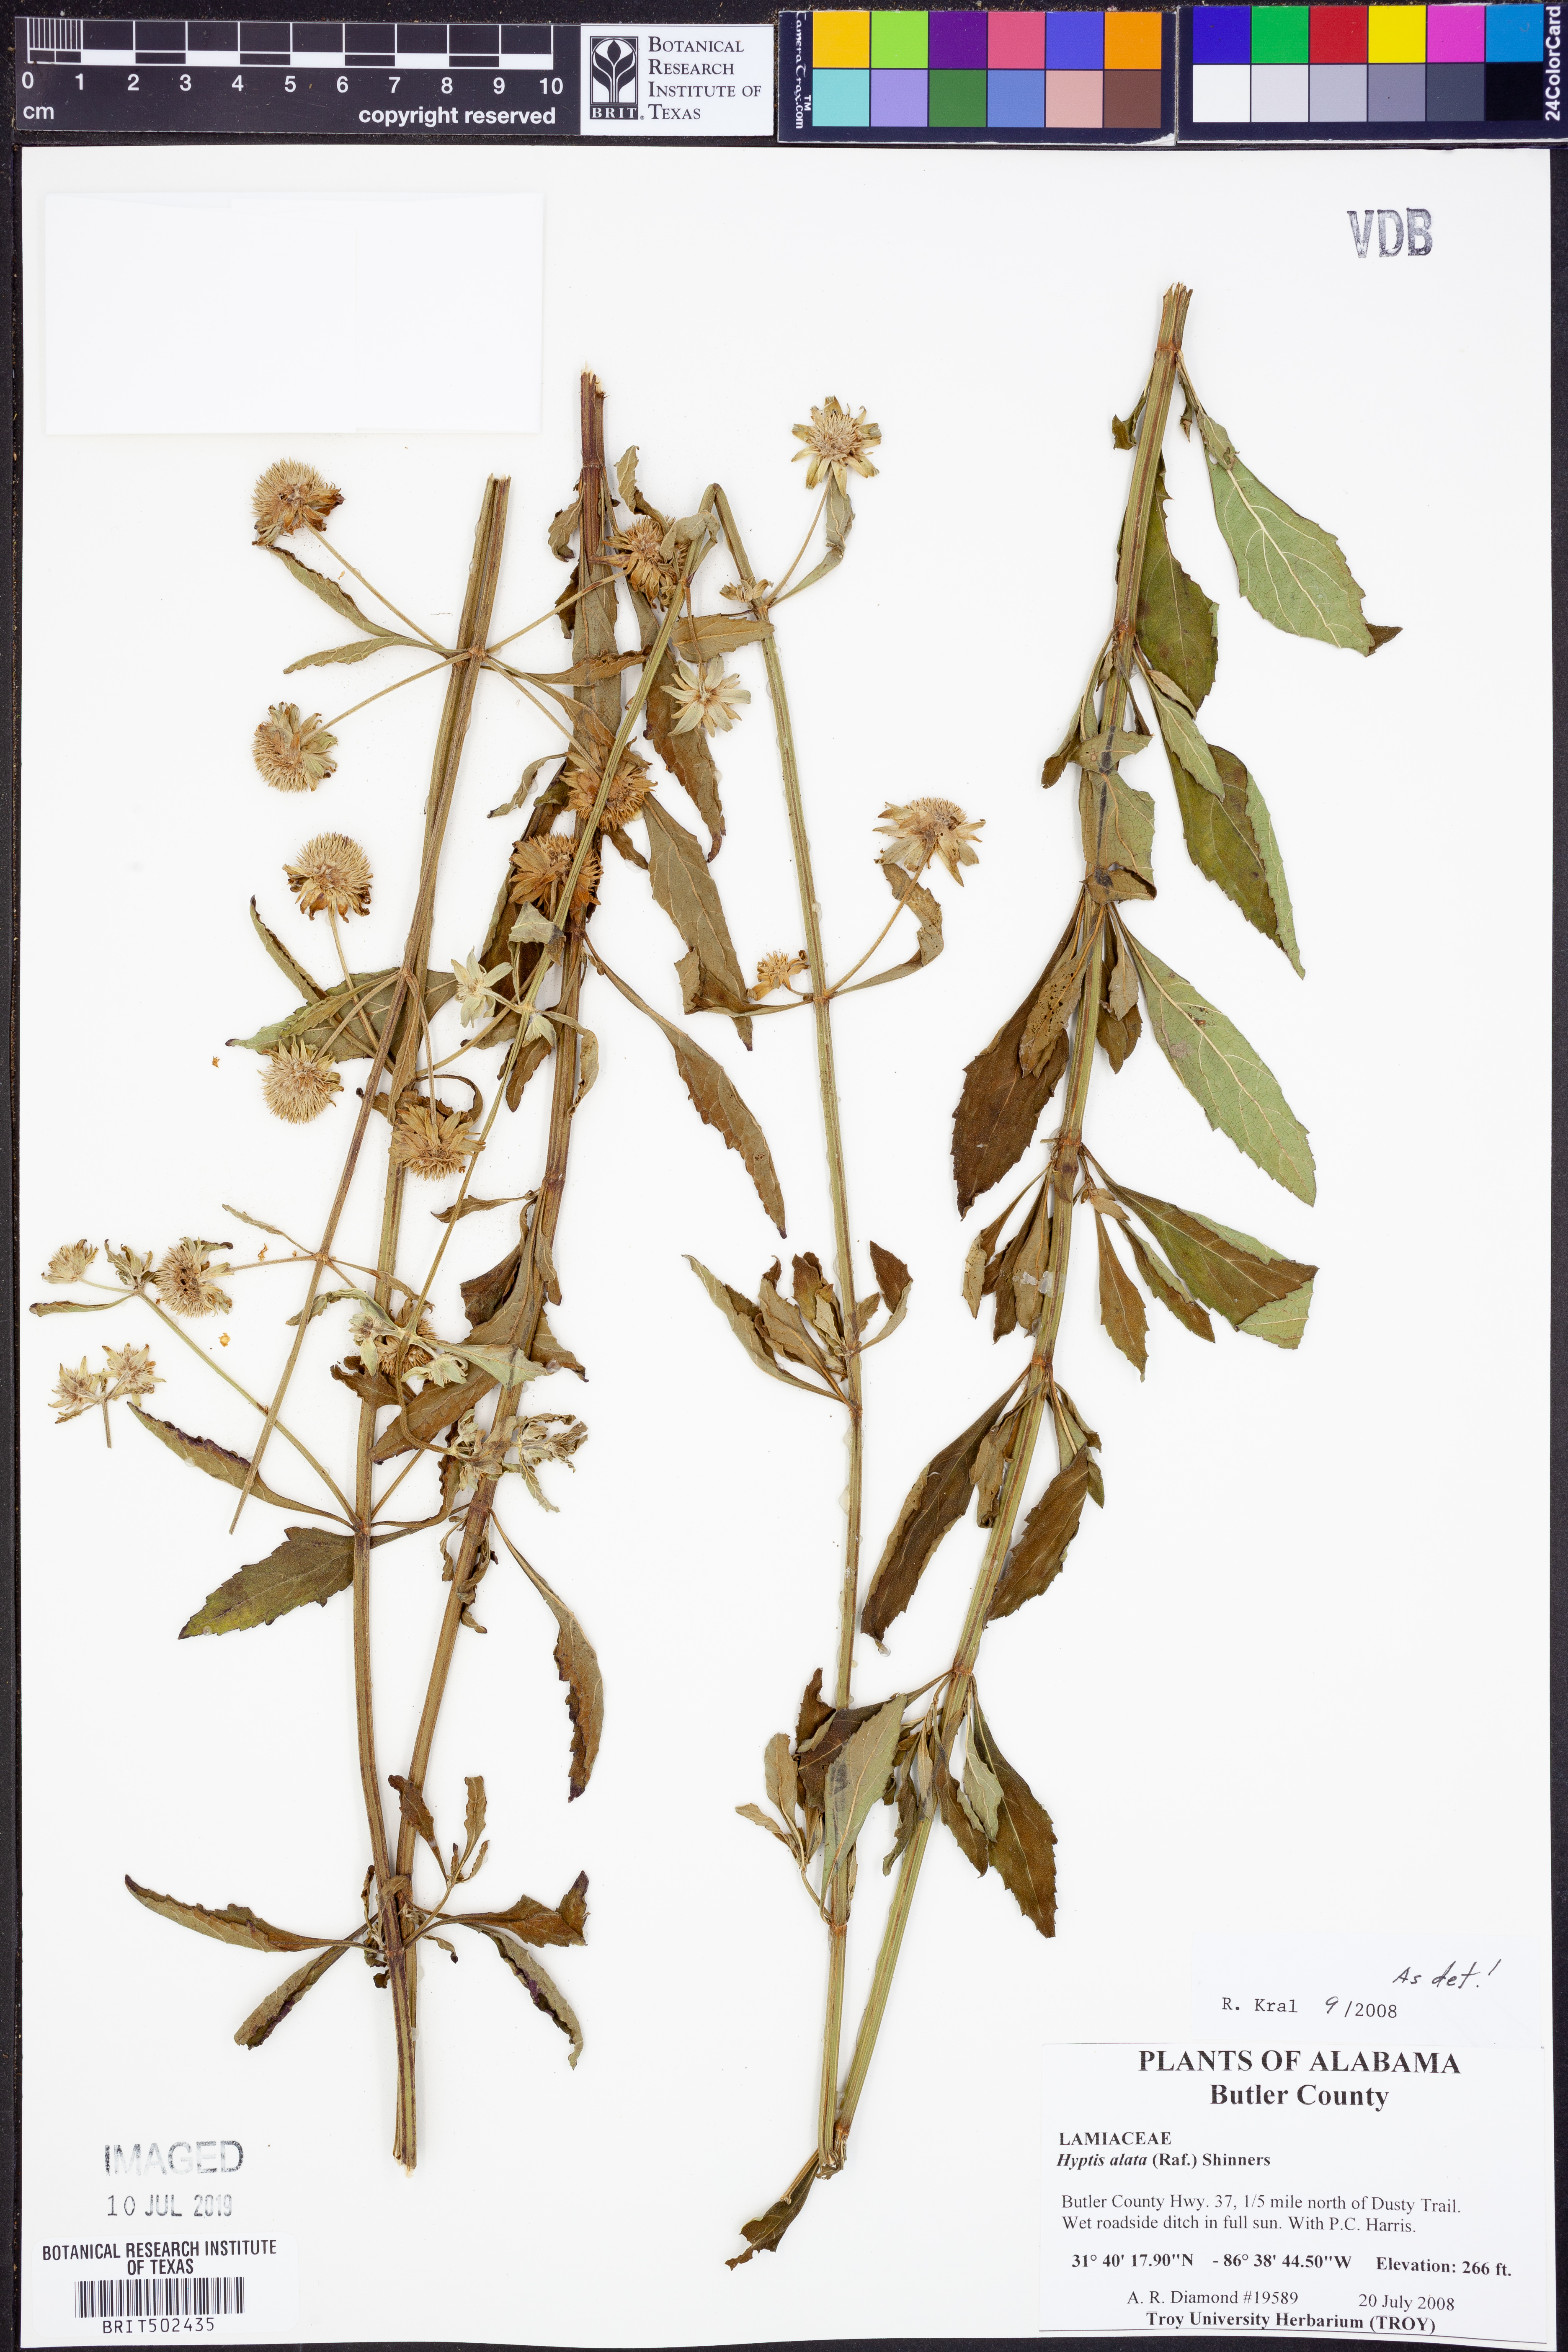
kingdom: Plantae
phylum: Tracheophyta
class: Magnoliopsida
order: Lamiales
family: Lamiaceae
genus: Hyptis
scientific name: Hyptis alata
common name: Cluster bush-mint
